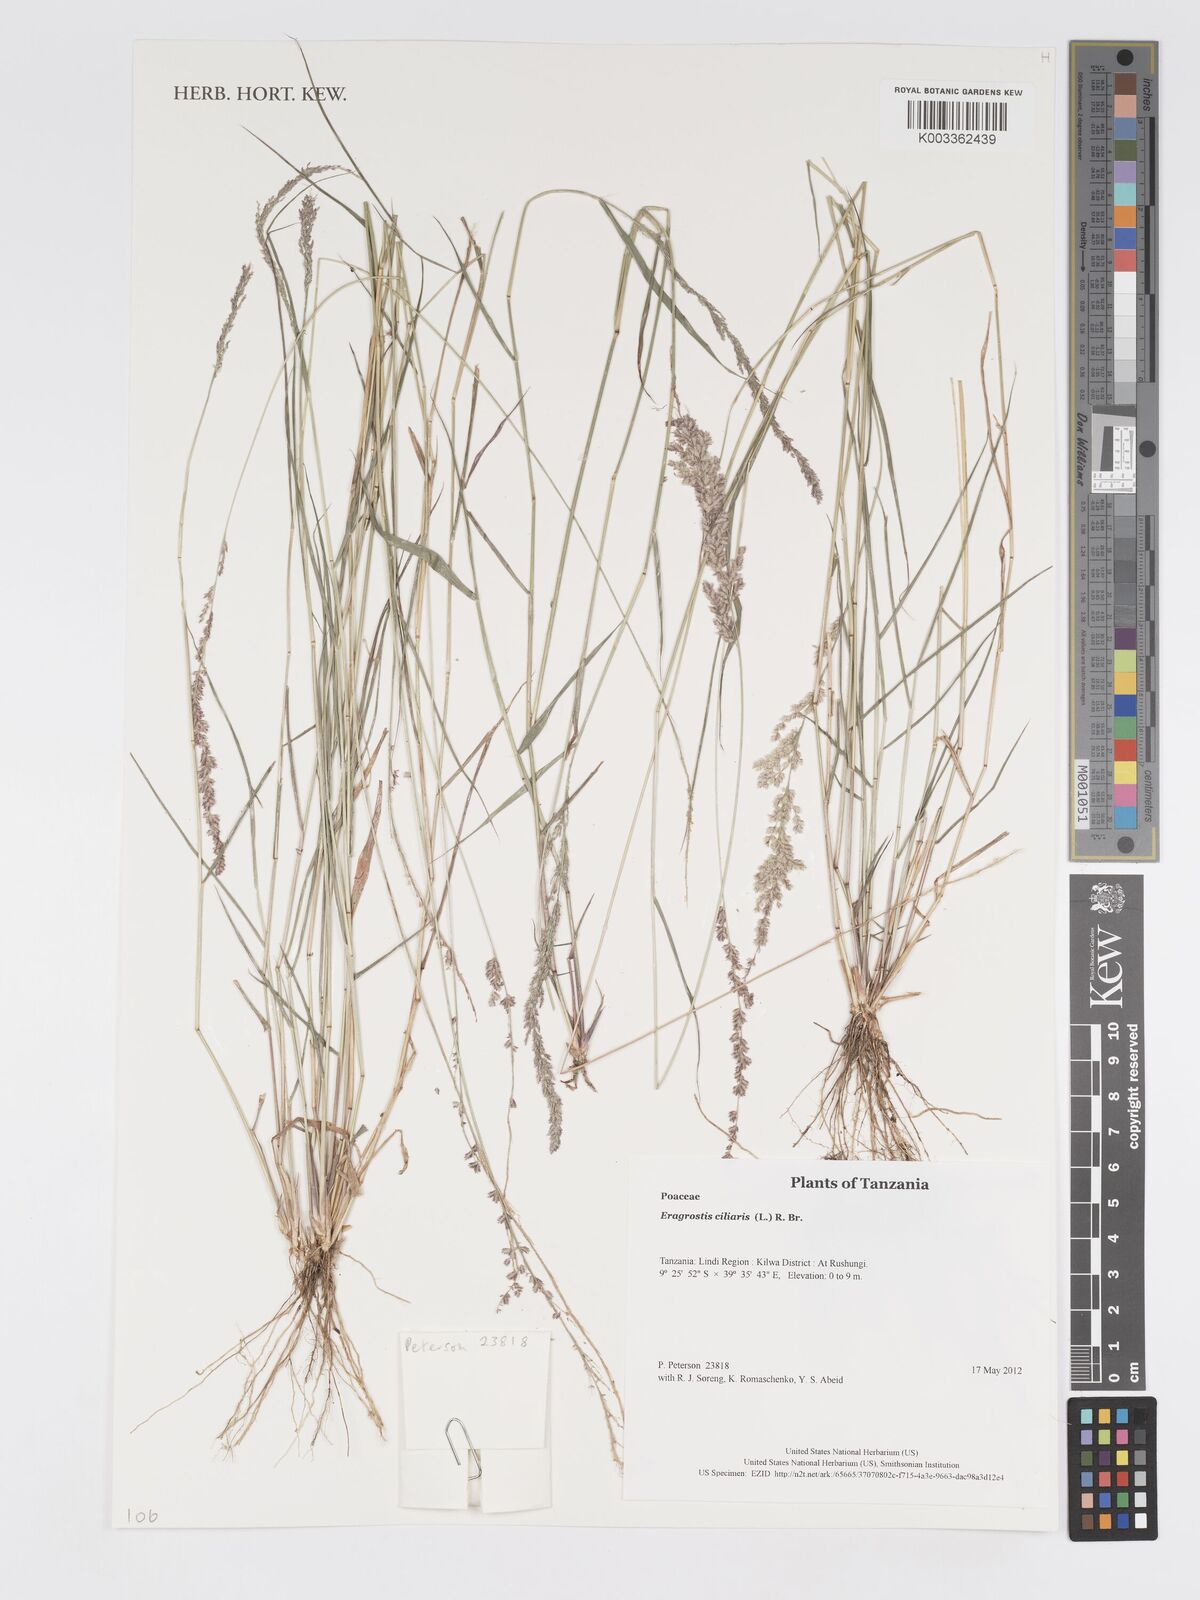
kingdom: Plantae
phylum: Tracheophyta
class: Liliopsida
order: Poales
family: Poaceae
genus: Eragrostis
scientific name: Eragrostis ciliaris
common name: Gophertail lovegrass
